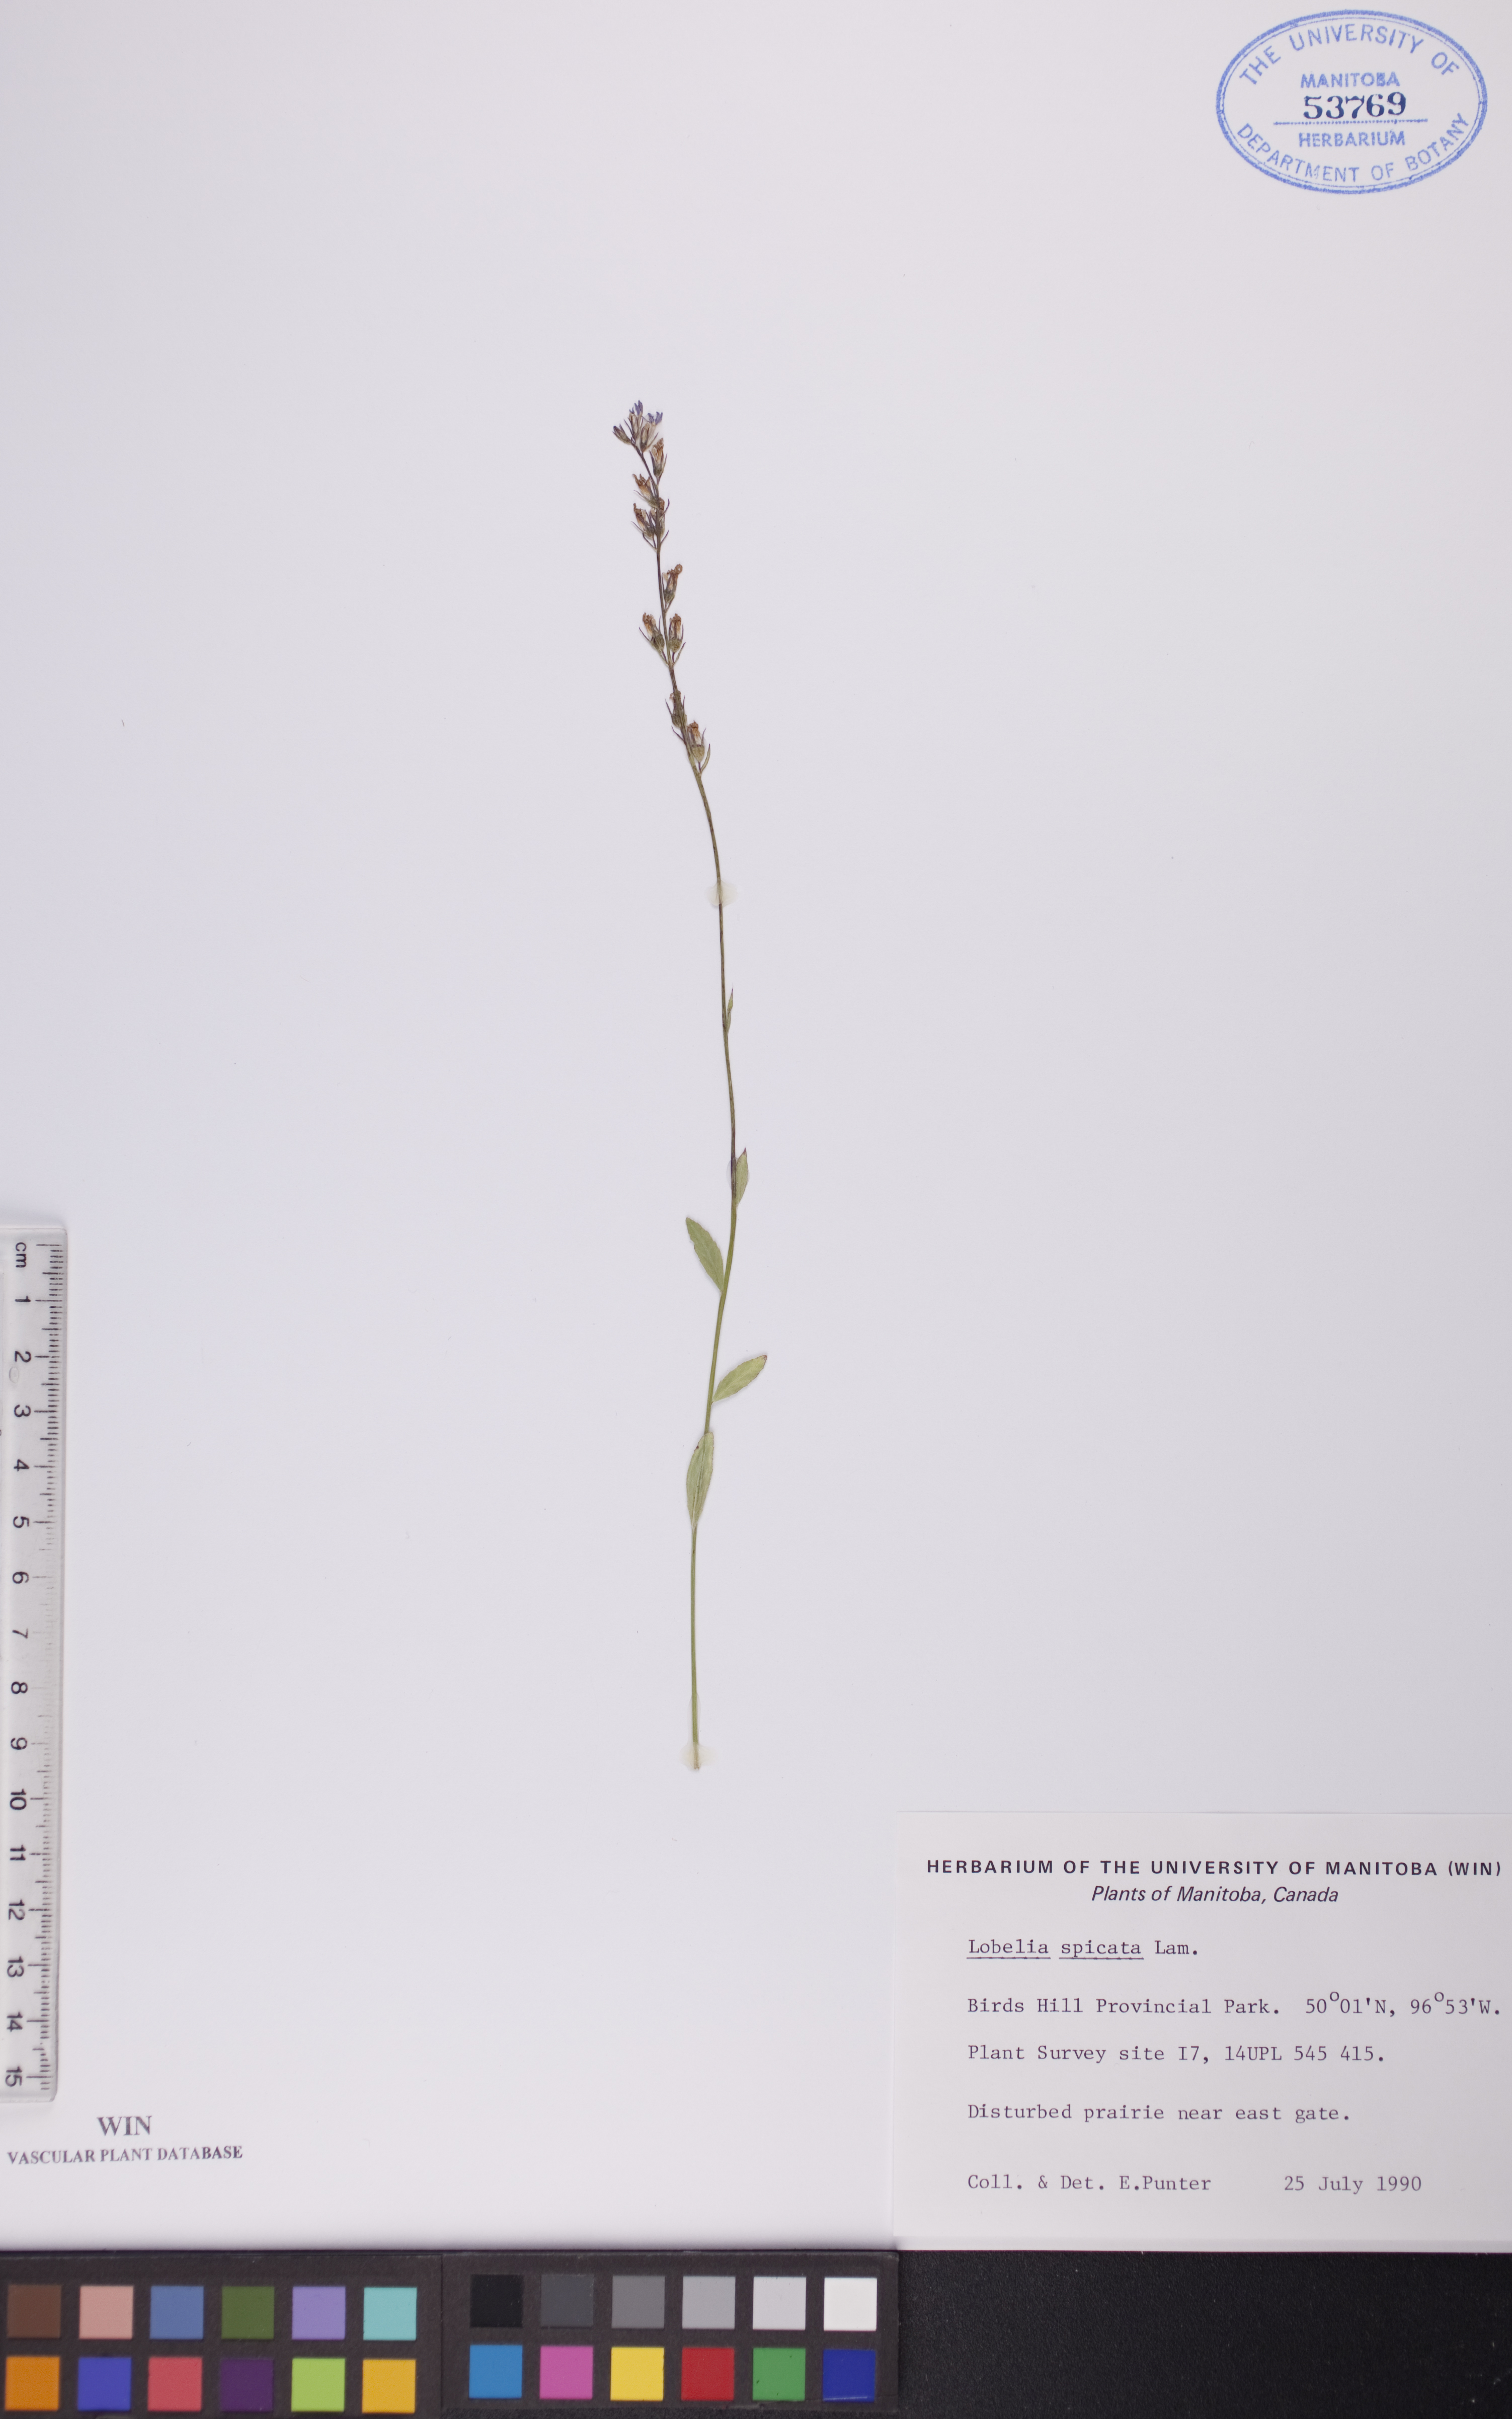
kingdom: Plantae
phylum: Tracheophyta
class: Magnoliopsida
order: Asterales
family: Campanulaceae
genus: Lobelia
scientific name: Lobelia spicata
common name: Pale-spike lobelia
